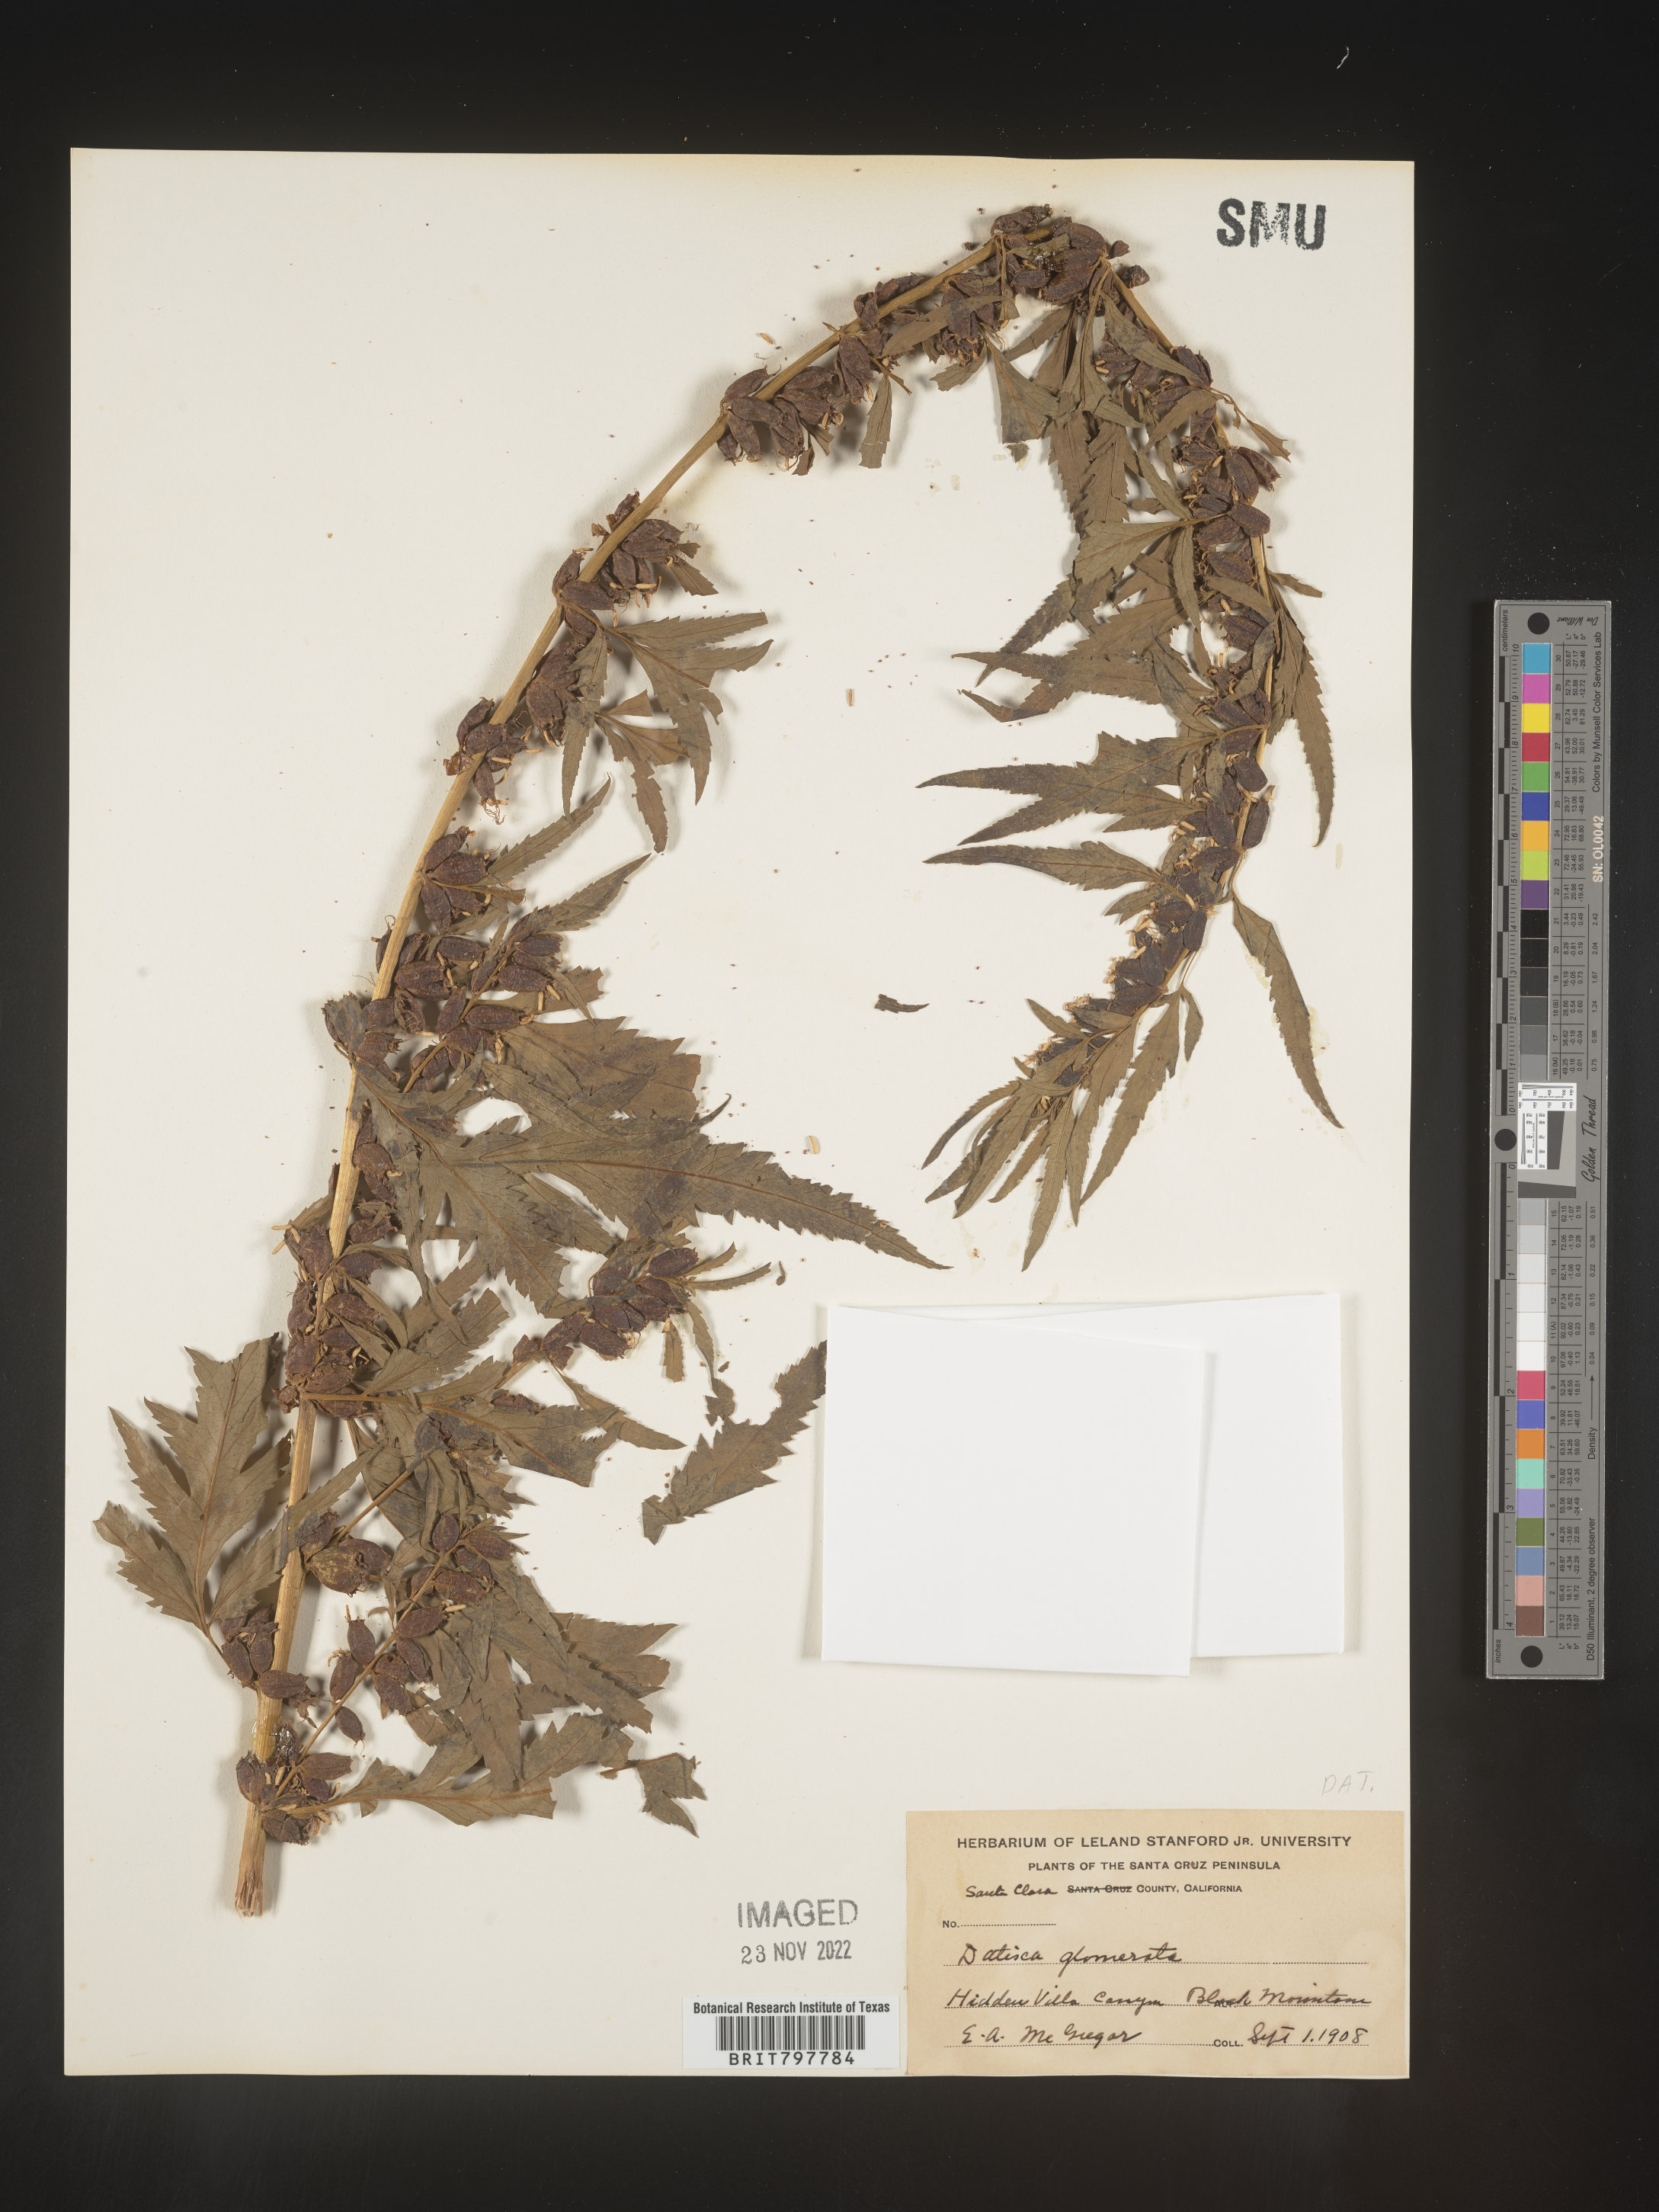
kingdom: Plantae
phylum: Tracheophyta
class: Magnoliopsida
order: Cucurbitales
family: Datiscaceae
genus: Datisca
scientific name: Datisca
